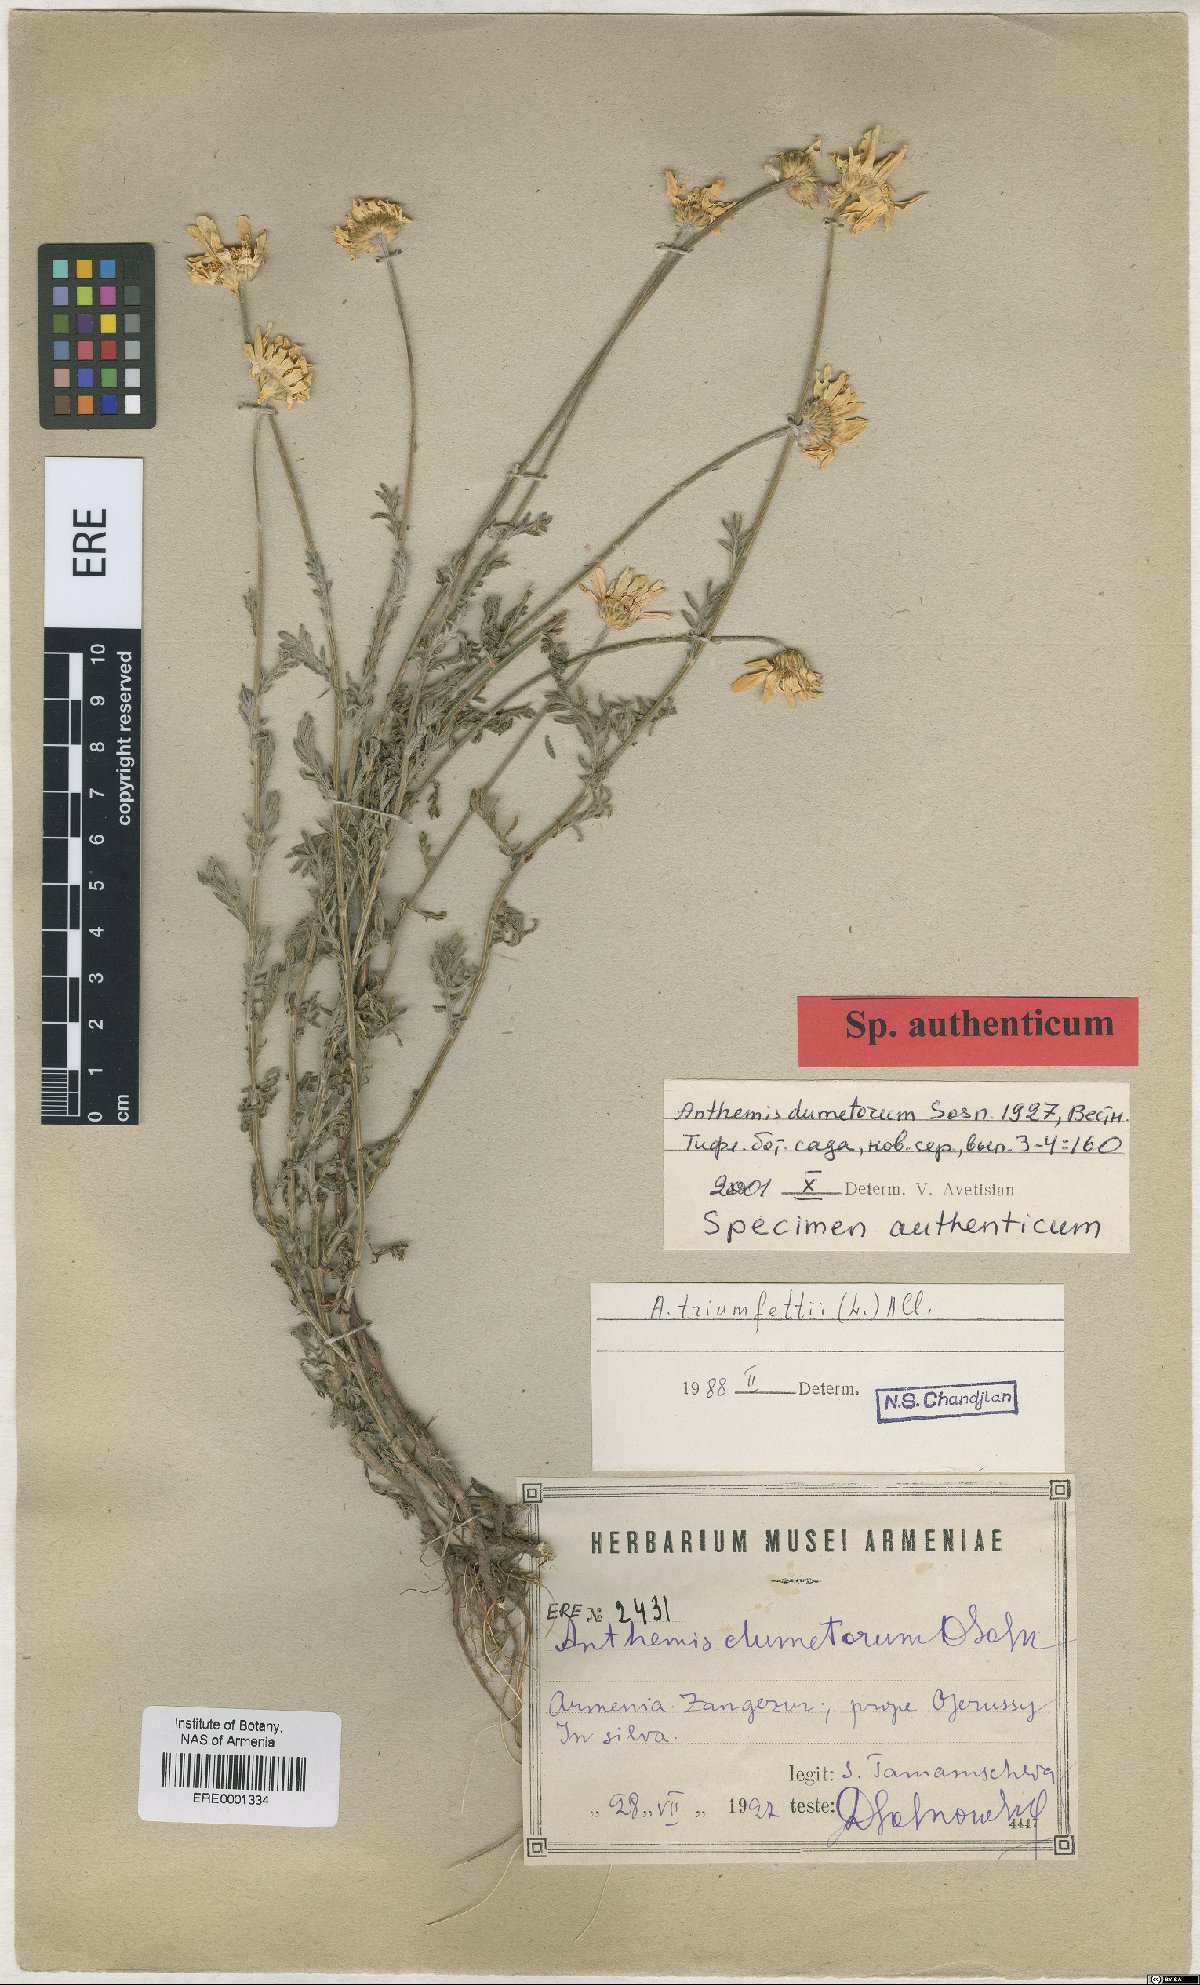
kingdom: Plantae
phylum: Tracheophyta
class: Magnoliopsida
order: Asterales
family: Asteraceae
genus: Cota
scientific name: Cota triumfetti
